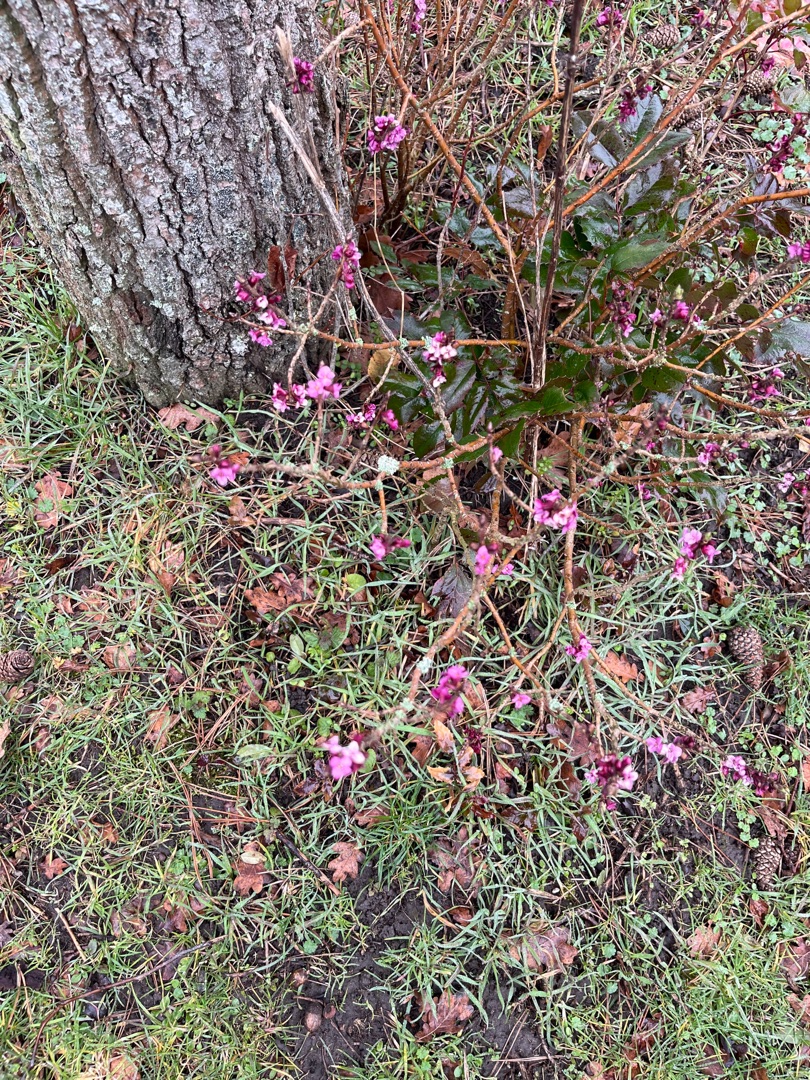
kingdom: Plantae
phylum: Tracheophyta
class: Magnoliopsida
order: Malvales
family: Thymelaeaceae
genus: Daphne
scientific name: Daphne mezereum
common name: Pebertræ
